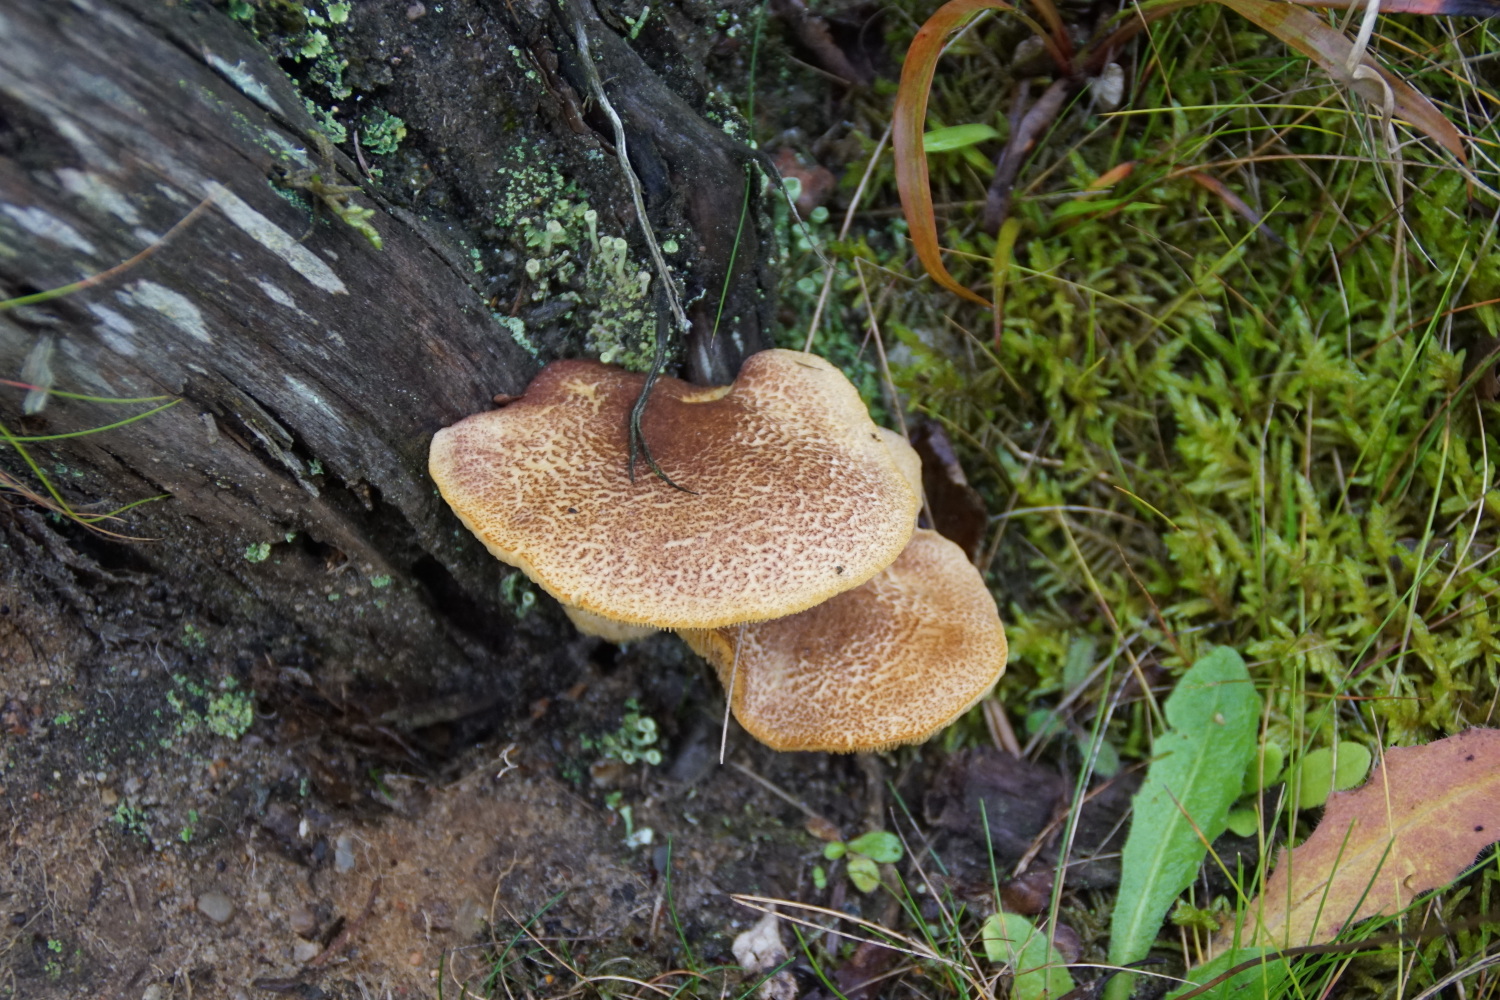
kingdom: Fungi
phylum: Basidiomycota
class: Agaricomycetes
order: Agaricales
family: Tricholomataceae
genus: Tricholomopsis
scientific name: Tricholomopsis rutilans
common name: purpur-væbnerhat
